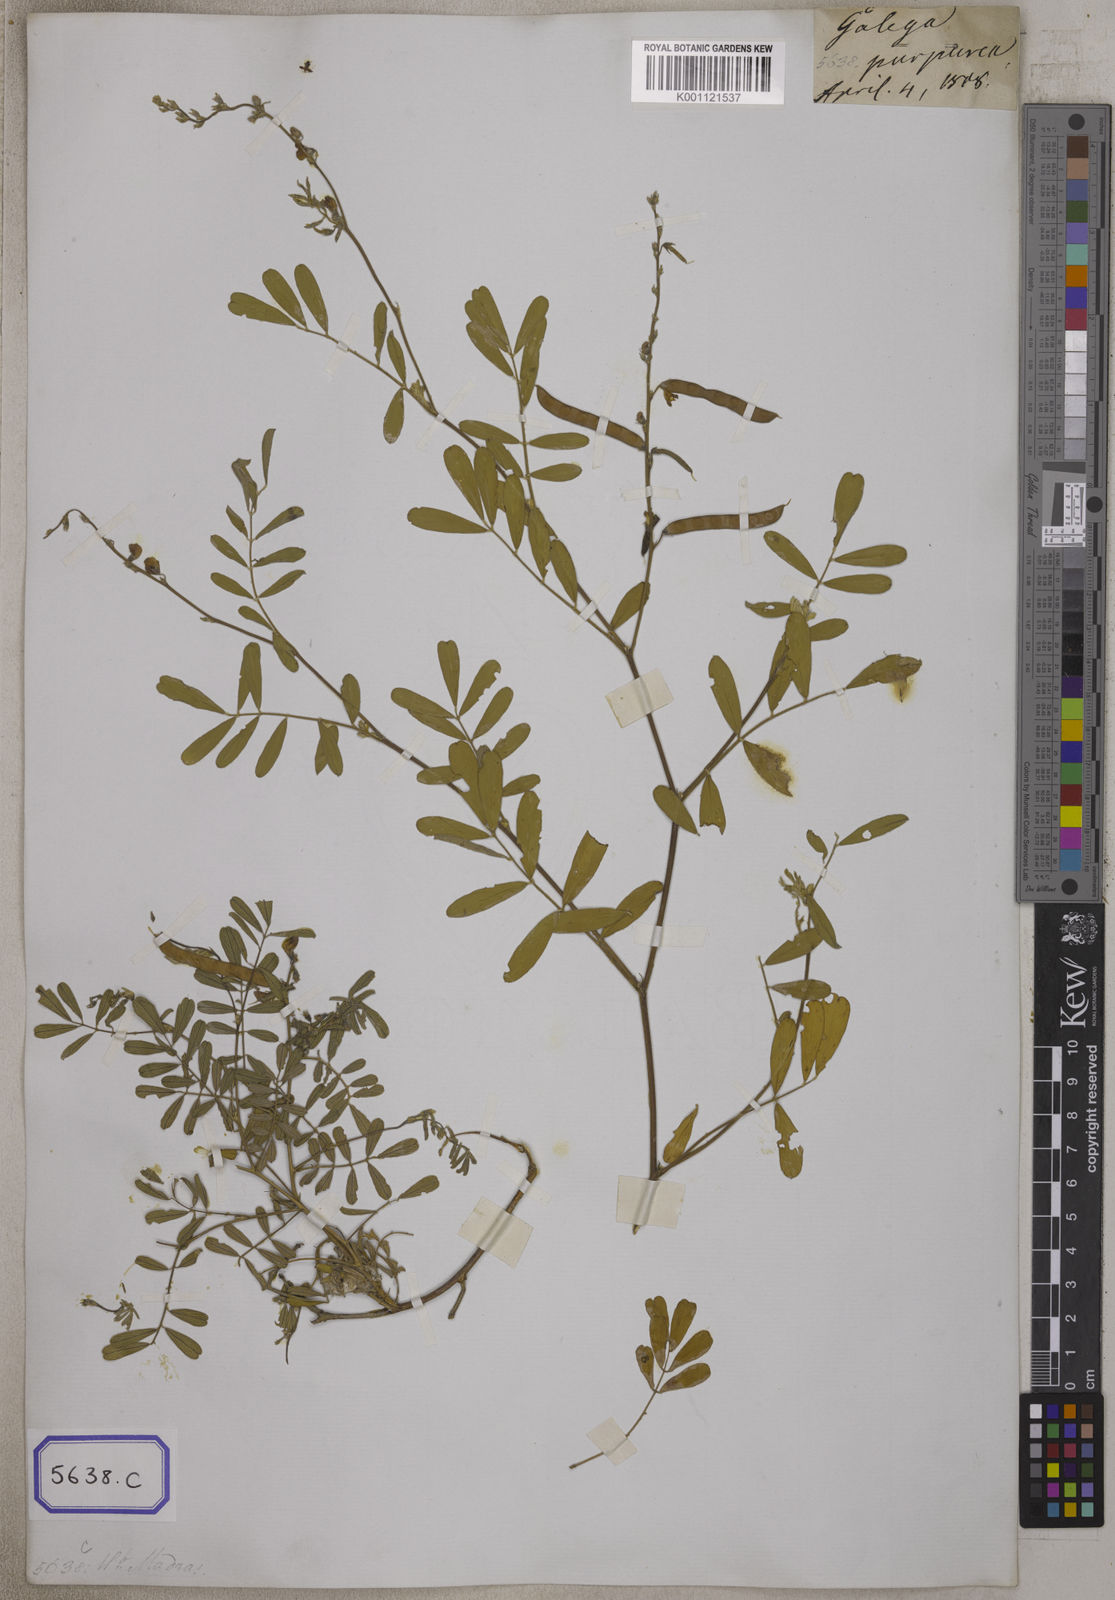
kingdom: Plantae
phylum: Tracheophyta
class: Magnoliopsida
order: Fabales
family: Fabaceae
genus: Tephrosia
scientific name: Tephrosia purpurea
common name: Fishpoison
